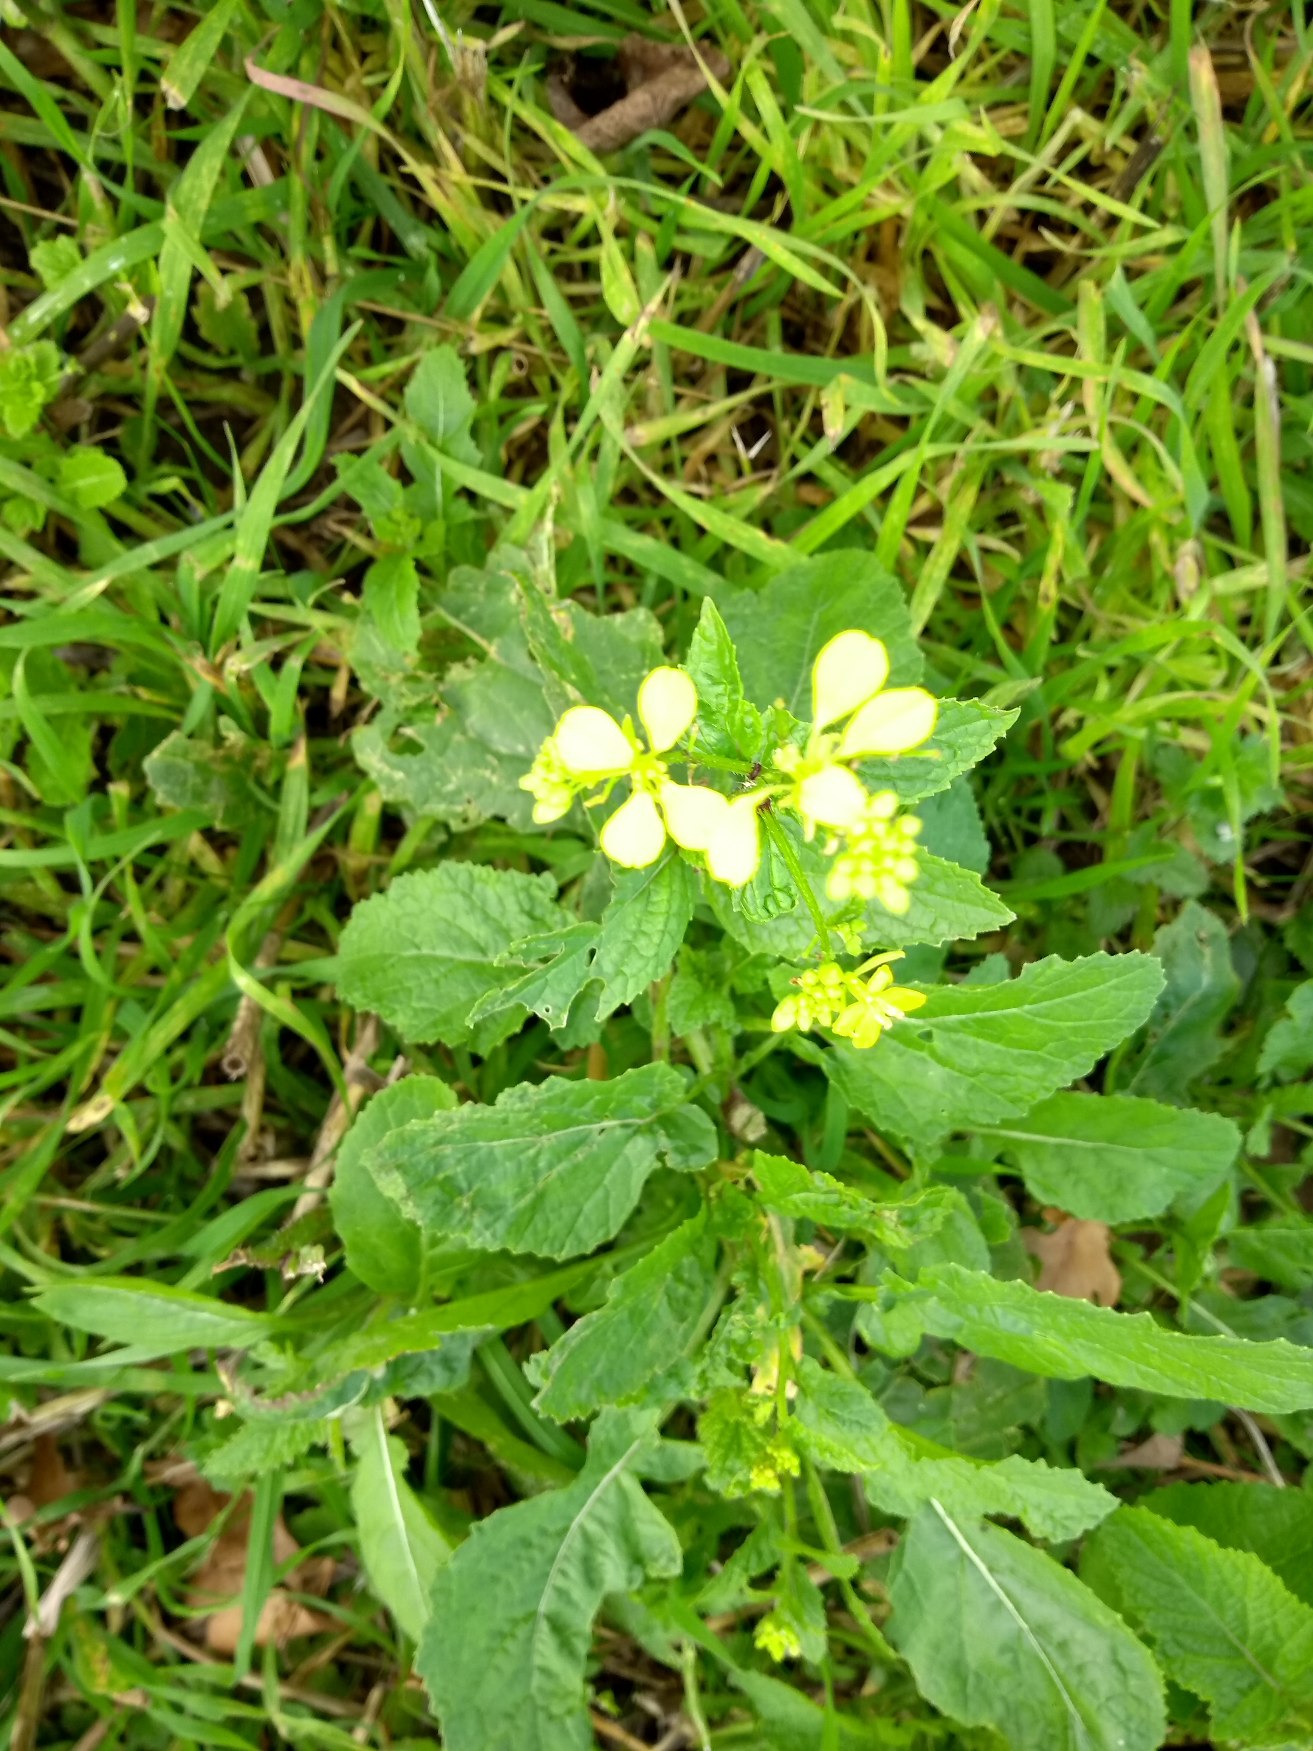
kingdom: Plantae
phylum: Tracheophyta
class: Magnoliopsida
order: Brassicales
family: Brassicaceae
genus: Sinapis
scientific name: Sinapis arvensis
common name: Ager-sennep
